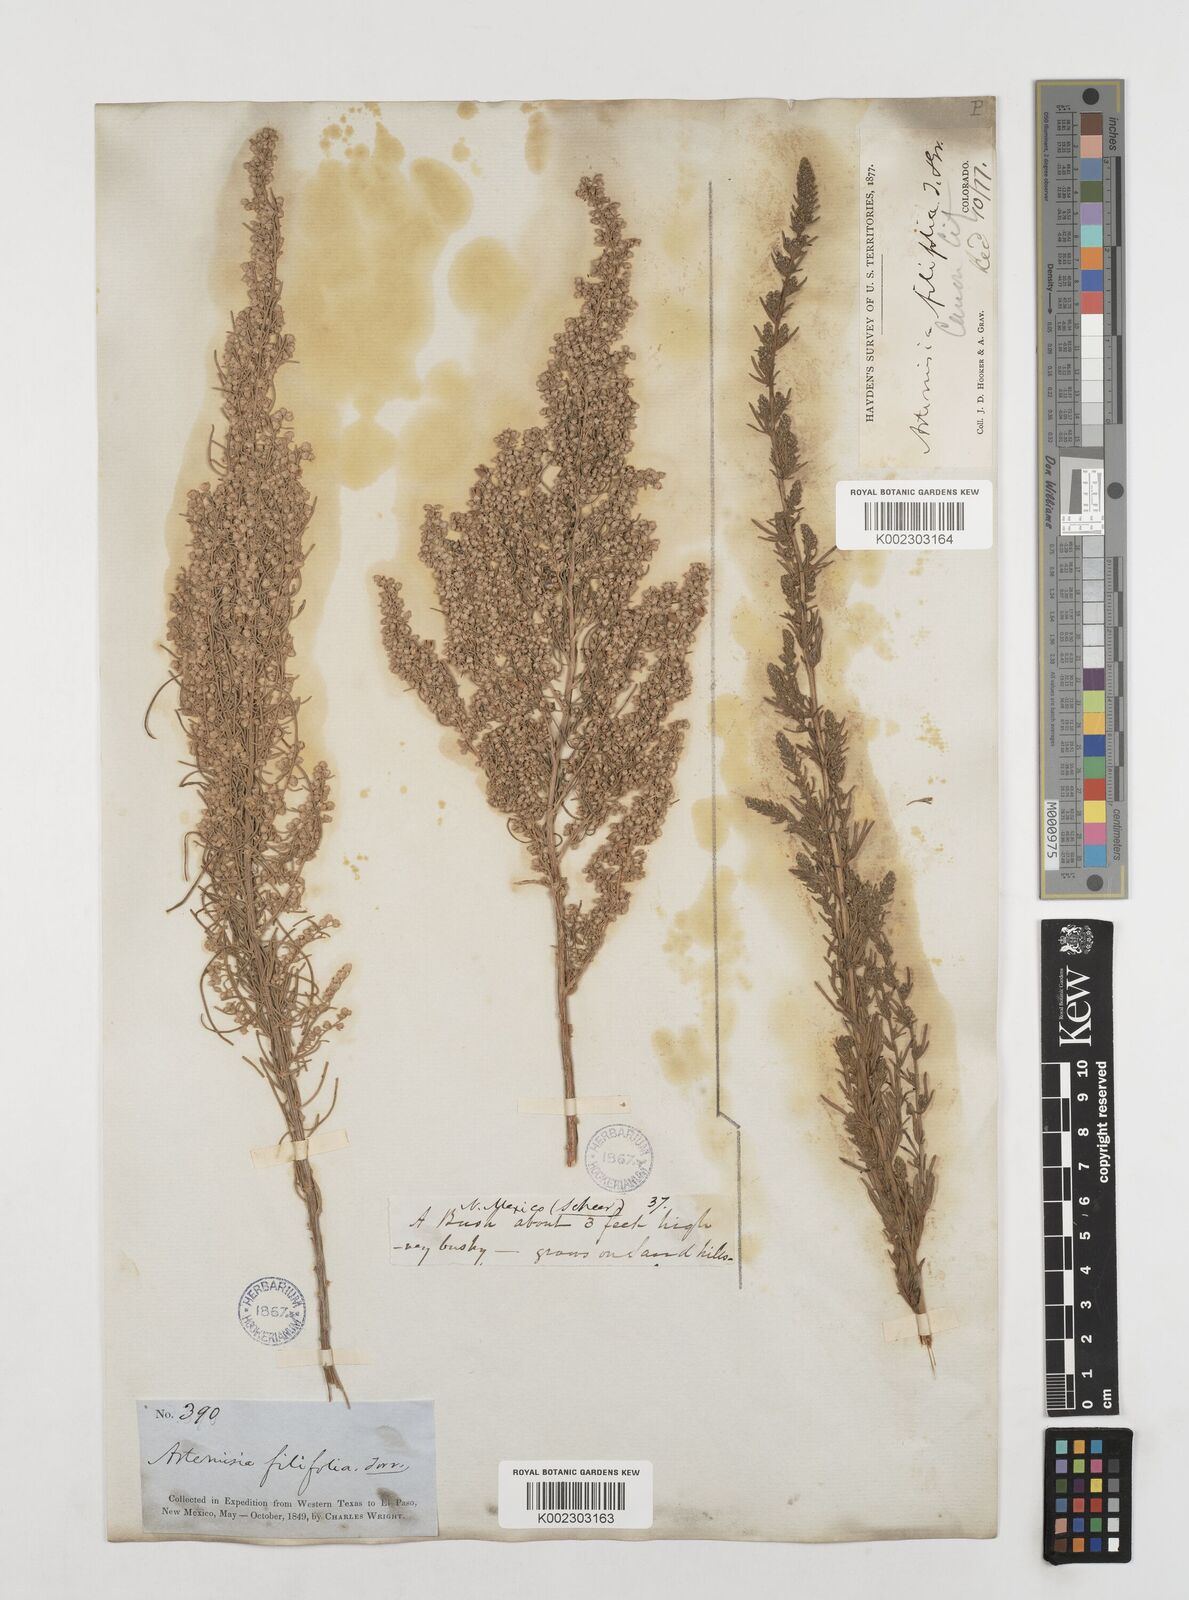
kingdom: Plantae
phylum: Tracheophyta
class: Magnoliopsida
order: Asterales
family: Asteraceae
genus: Artemisia
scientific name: Artemisia filifolia
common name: Sand-sage
